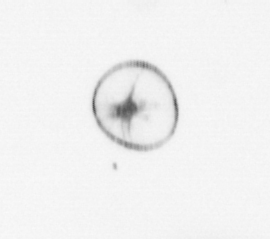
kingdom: Chromista
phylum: Myzozoa
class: Dinophyceae
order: Noctilucales
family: Noctilucaceae
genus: Noctiluca
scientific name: Noctiluca scintillans
